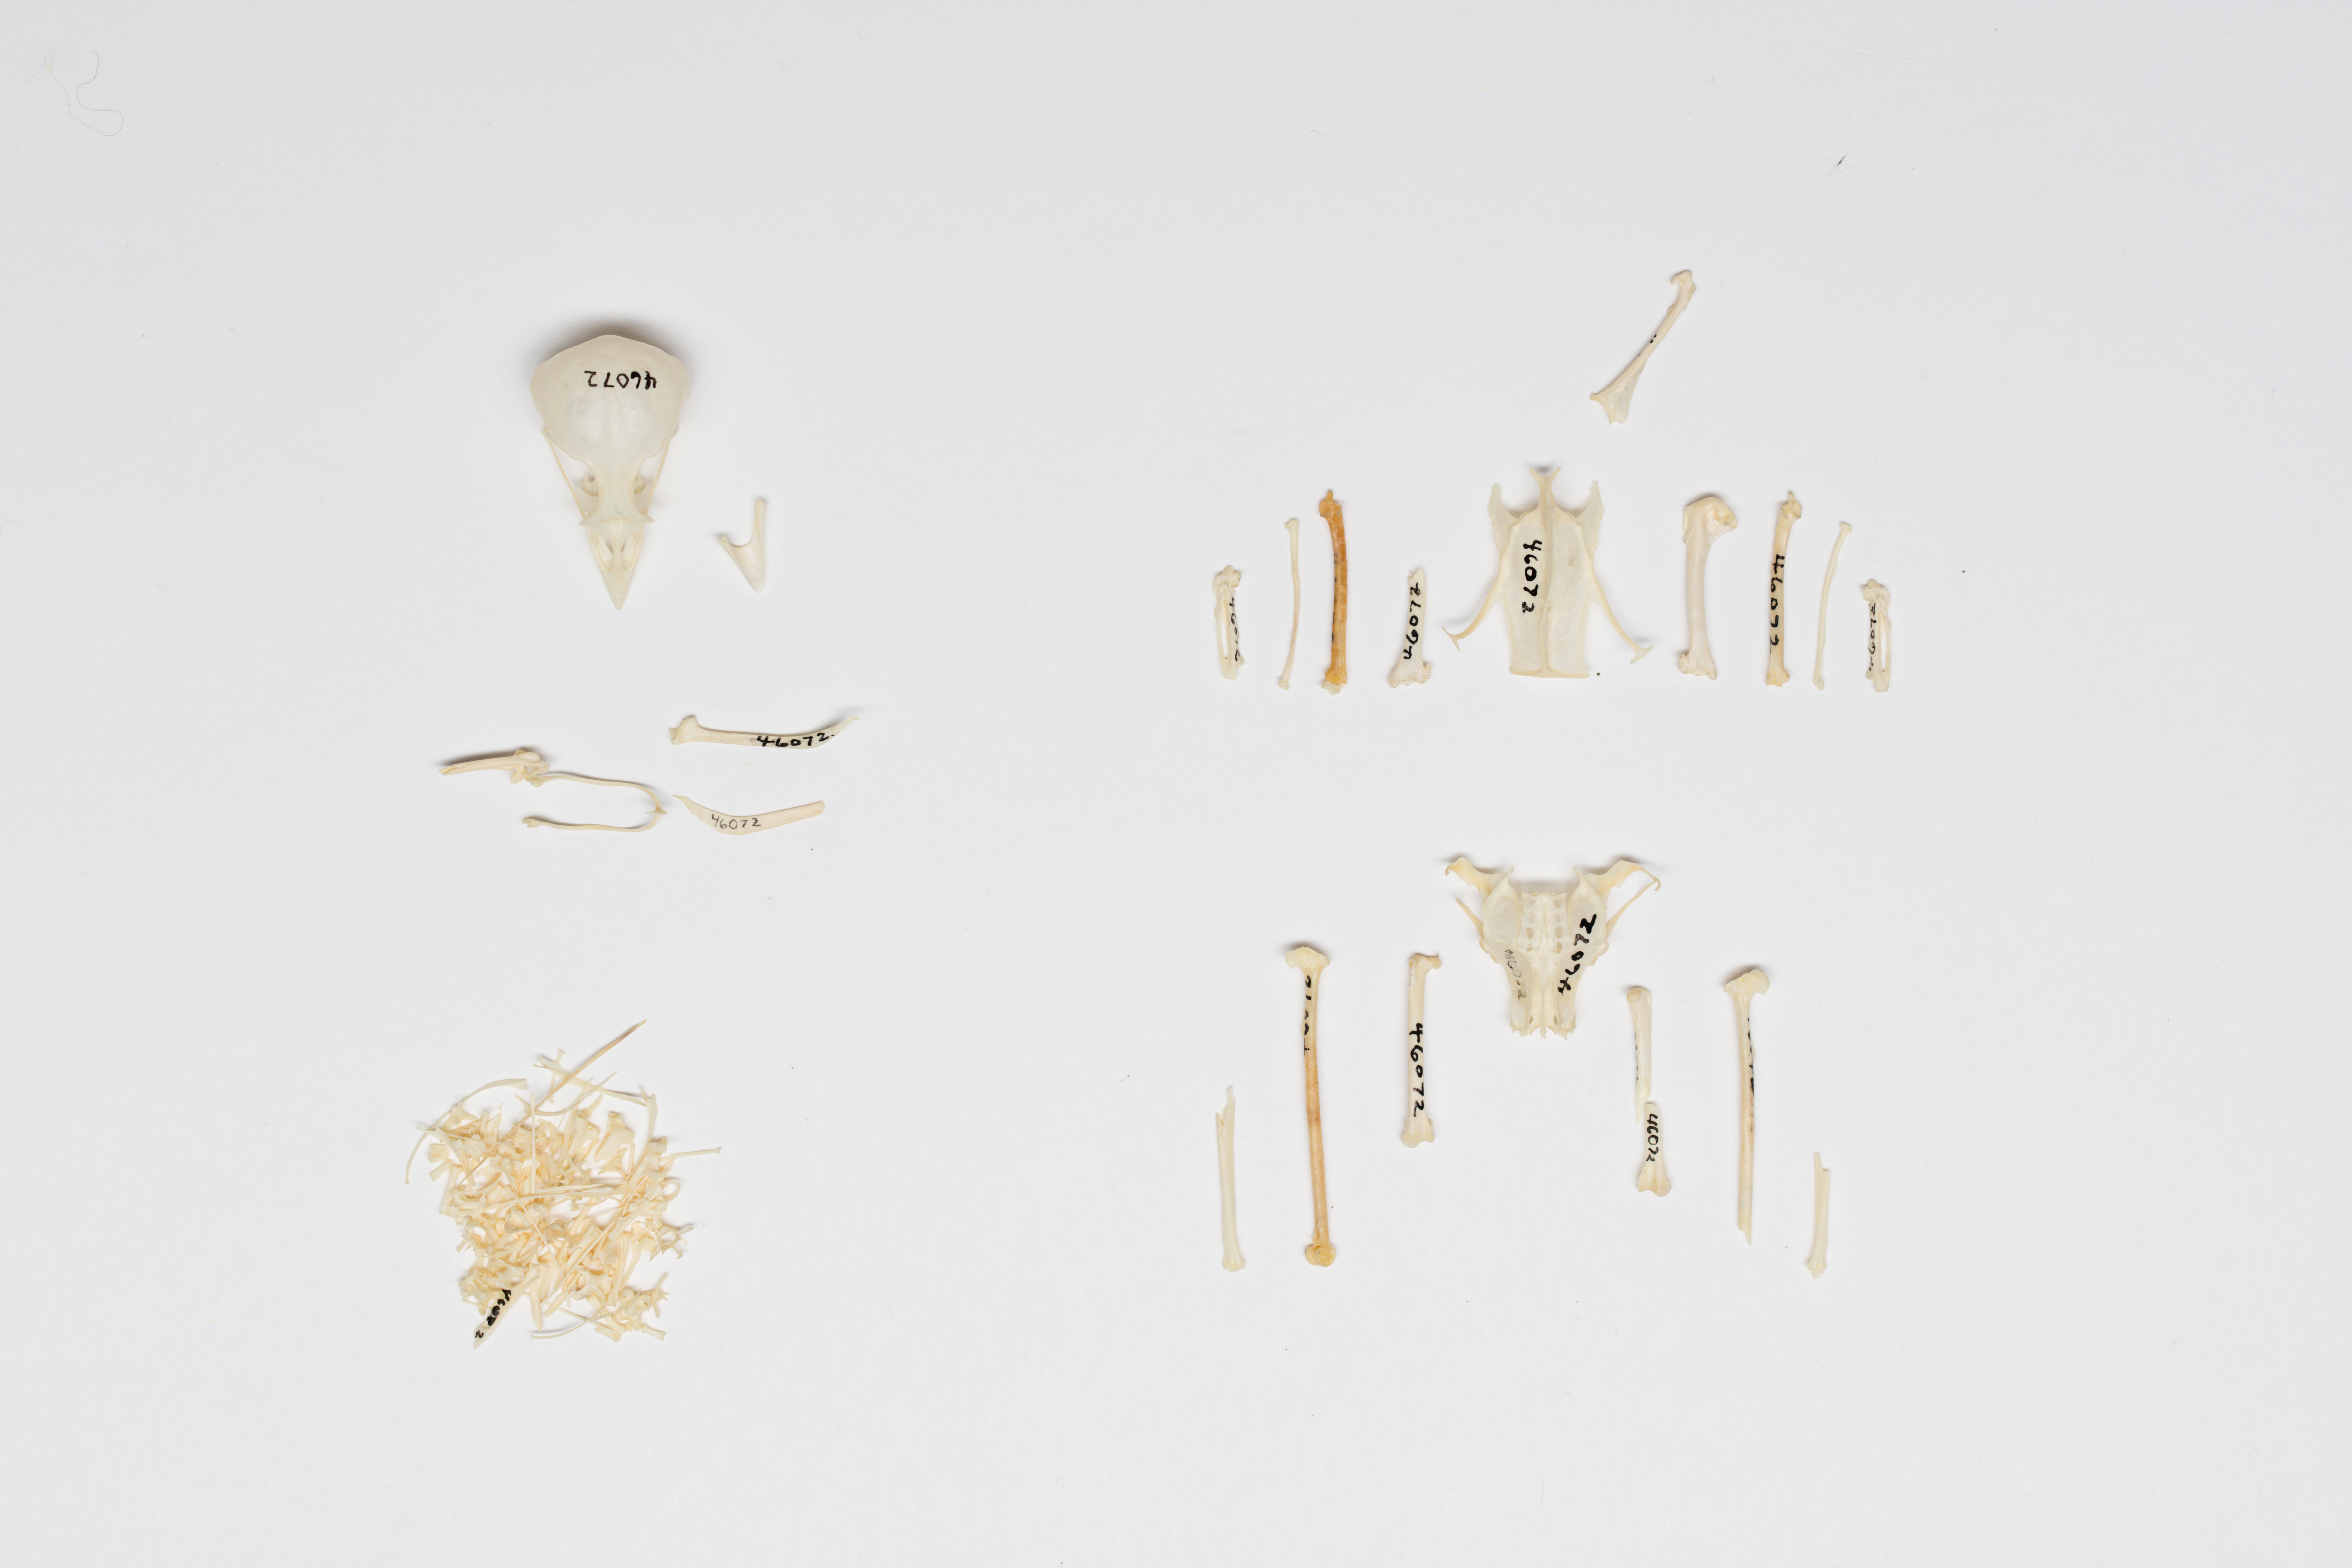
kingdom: Animalia
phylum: Chordata
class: Aves
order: Passeriformes
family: Passerellidae
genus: Zonotrichia
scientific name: Zonotrichia leucophrys
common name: White-crowned sparrow
